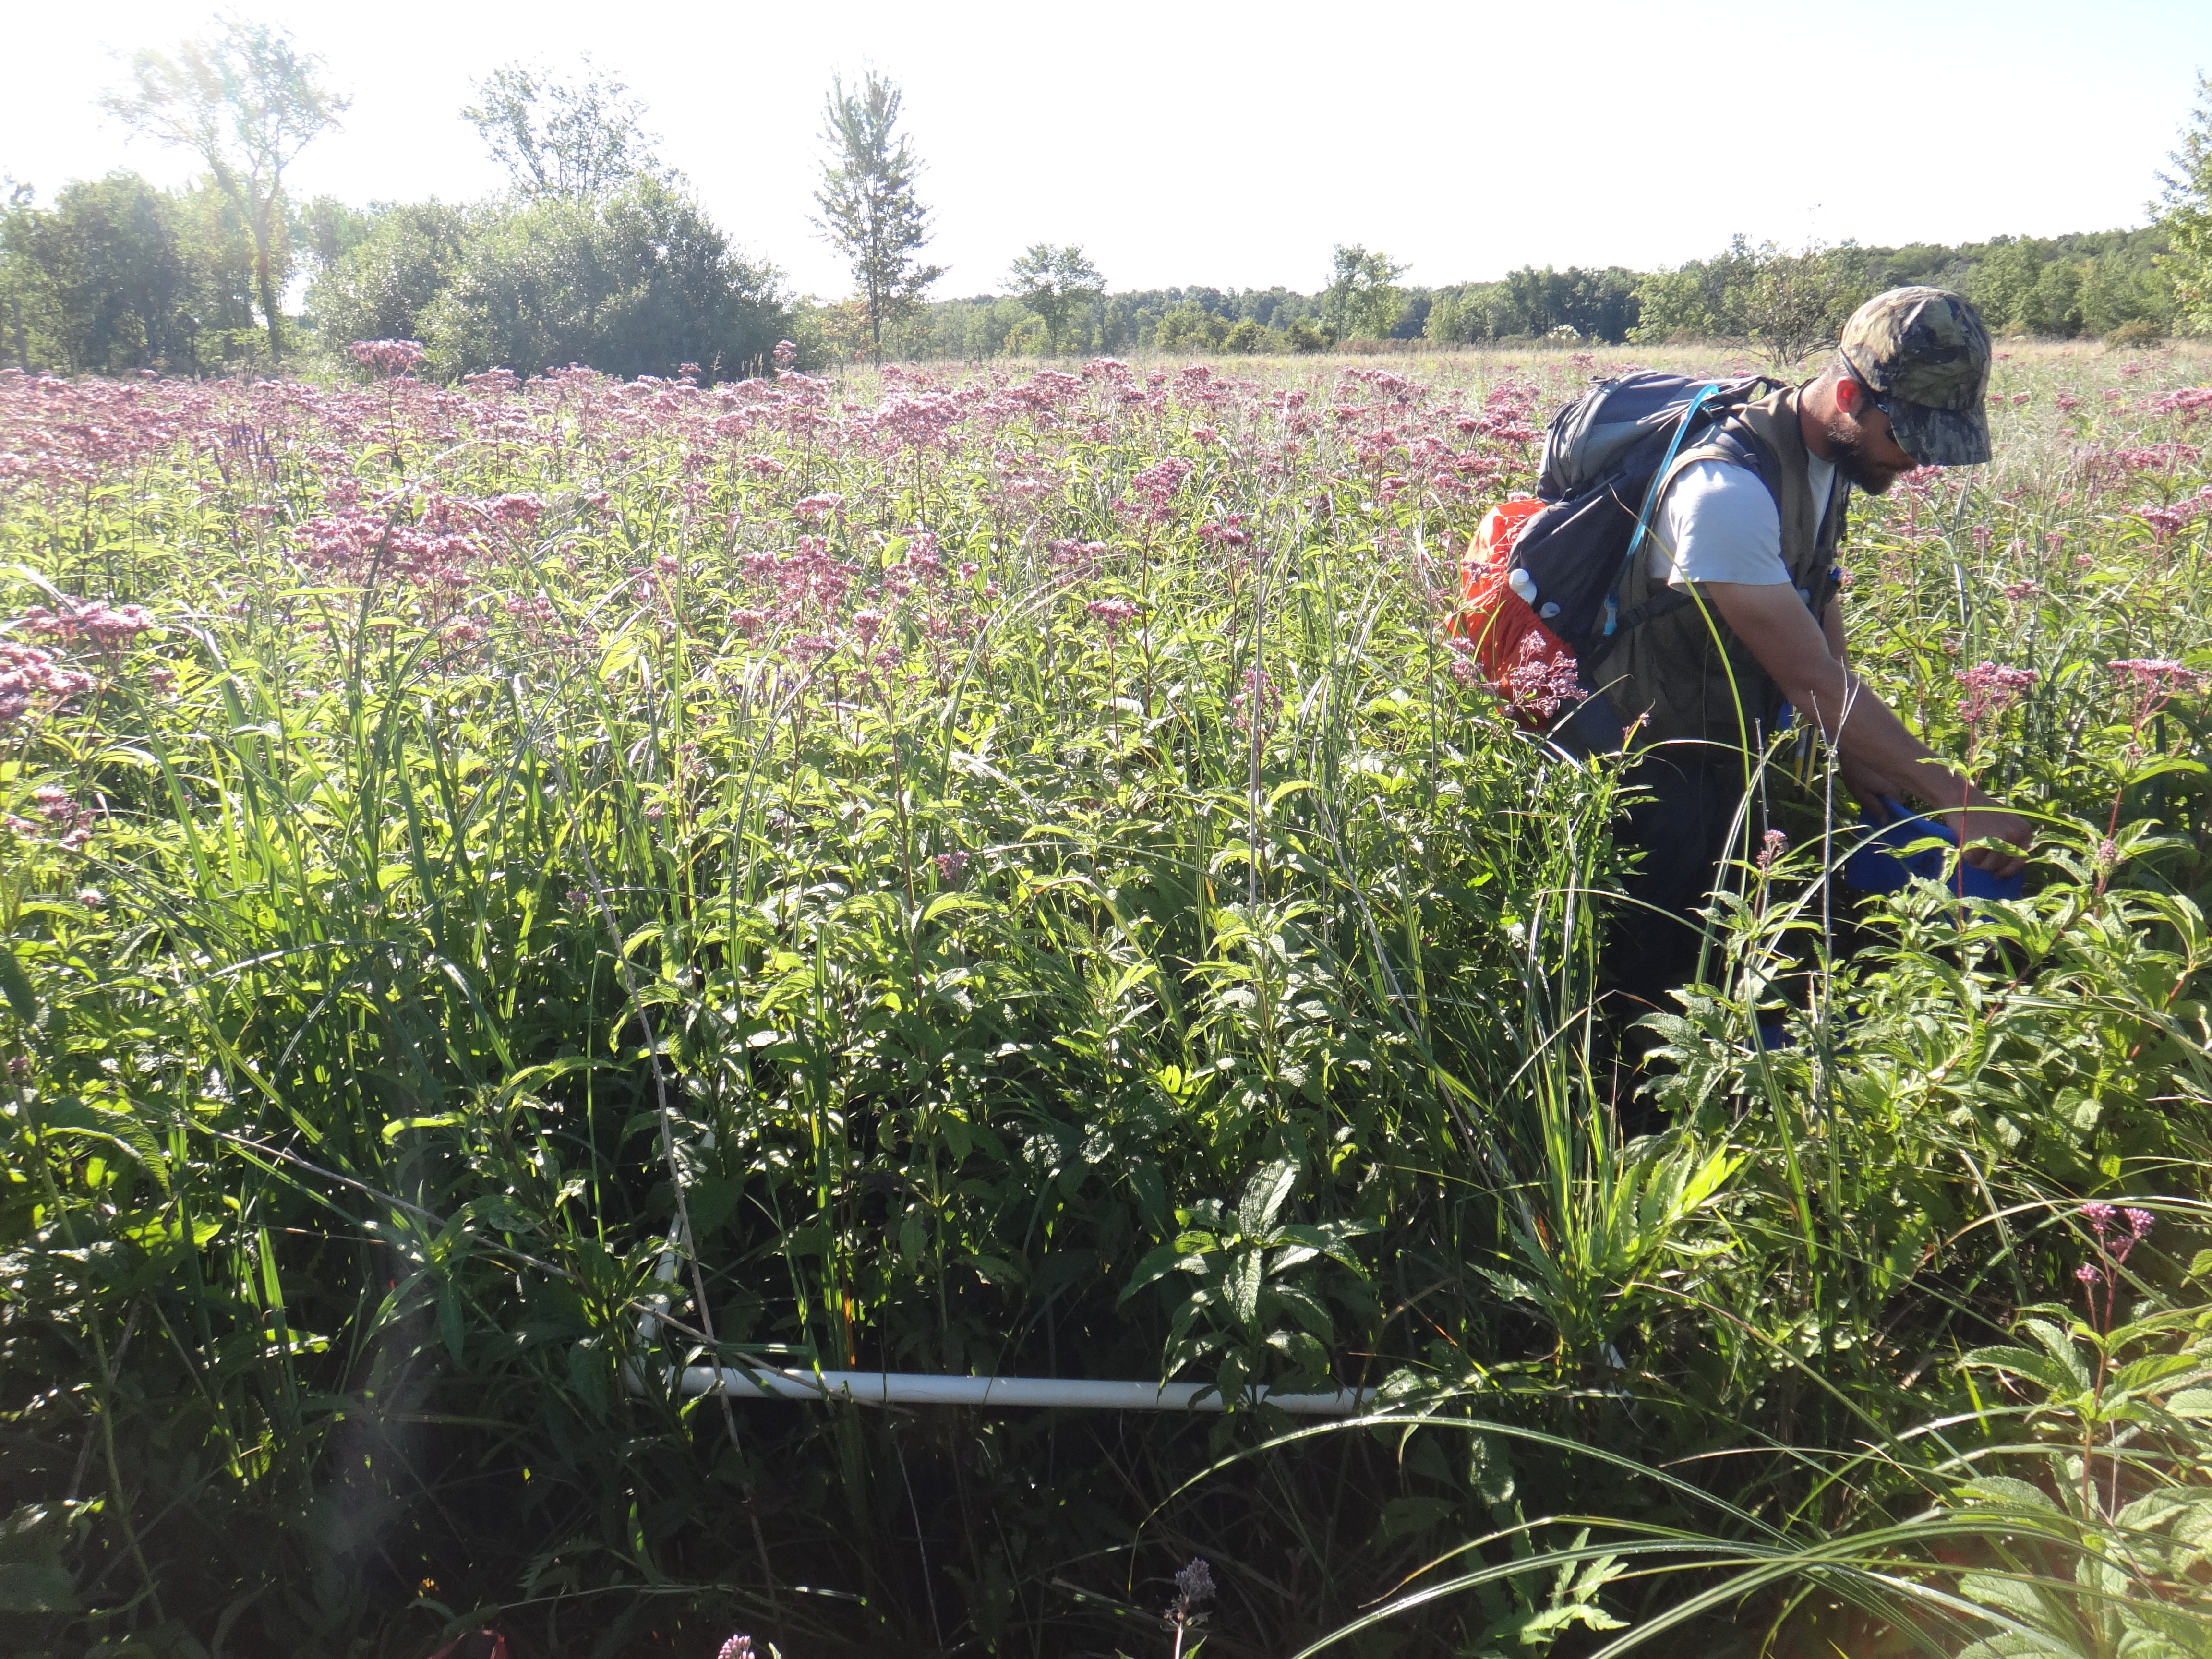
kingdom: Plantae
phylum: Tracheophyta
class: Liliopsida
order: Poales
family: Cyperaceae
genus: Carex
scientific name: Carex stricta
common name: Hummock sedge
